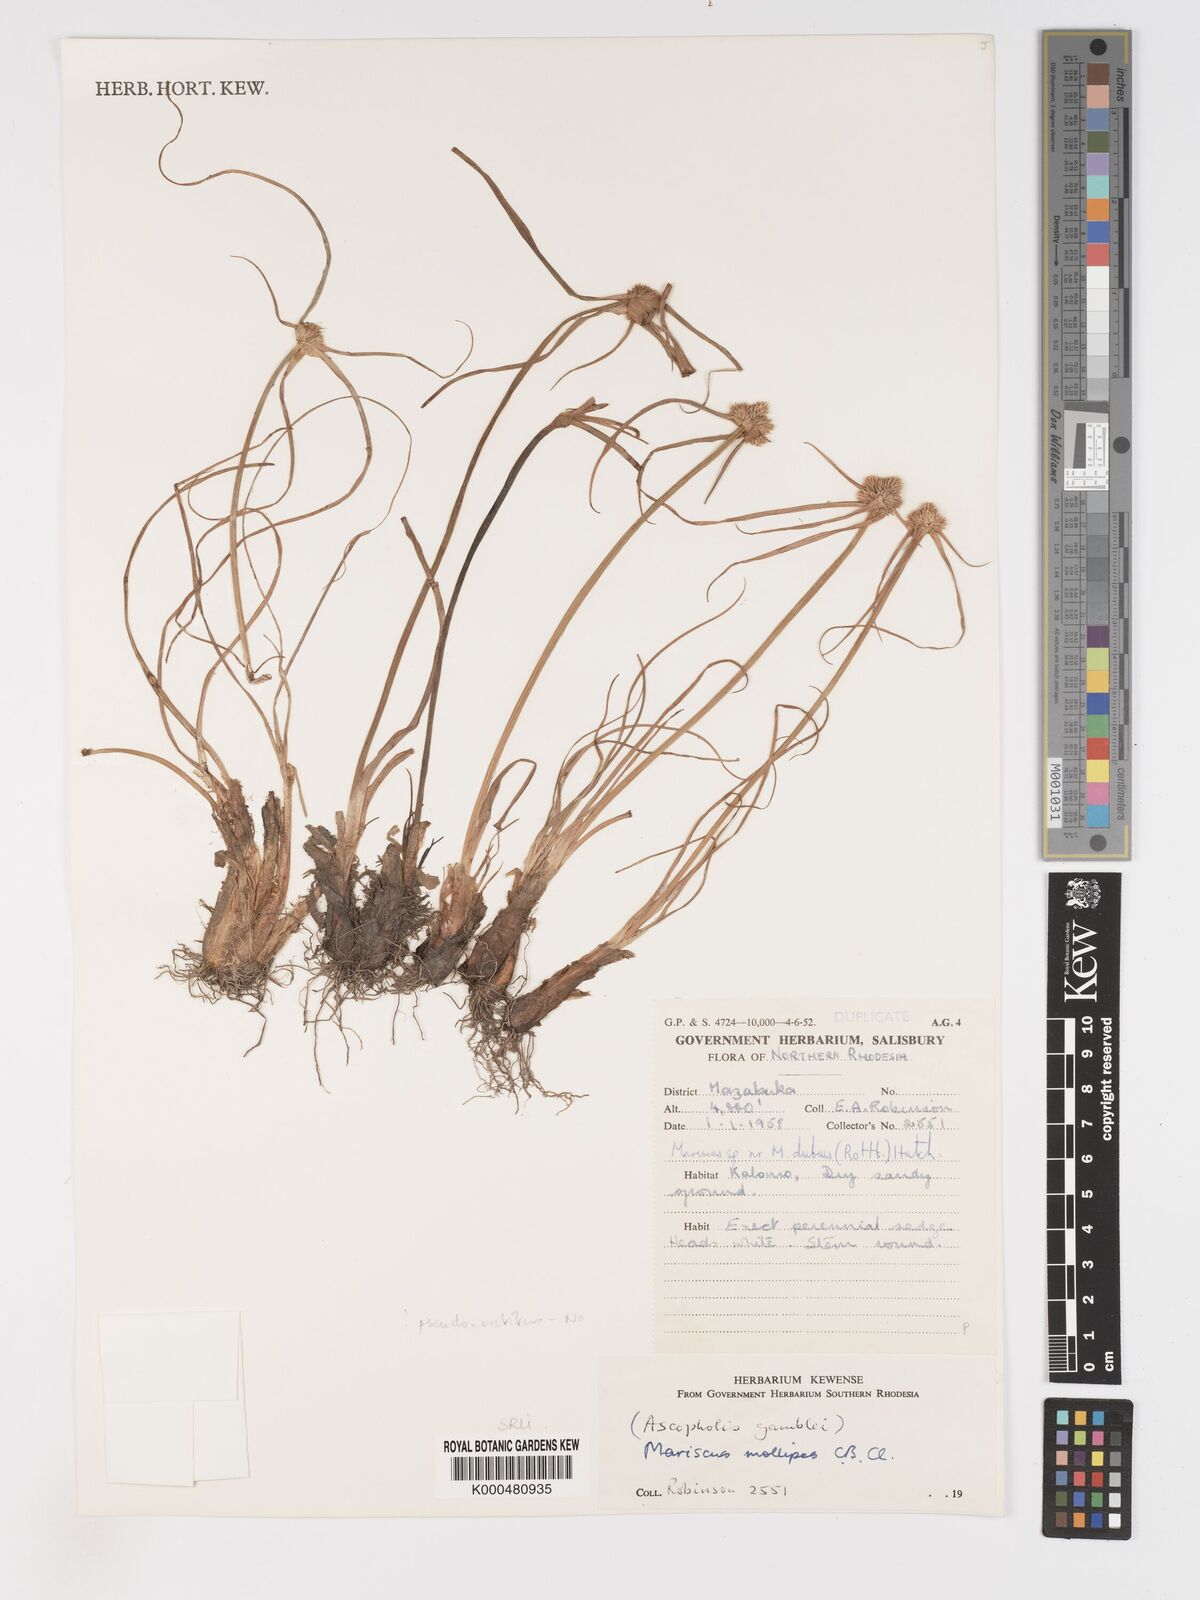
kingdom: Plantae
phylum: Tracheophyta
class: Liliopsida
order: Poales
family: Cyperaceae
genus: Cyperus
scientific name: Cyperus mollipes
